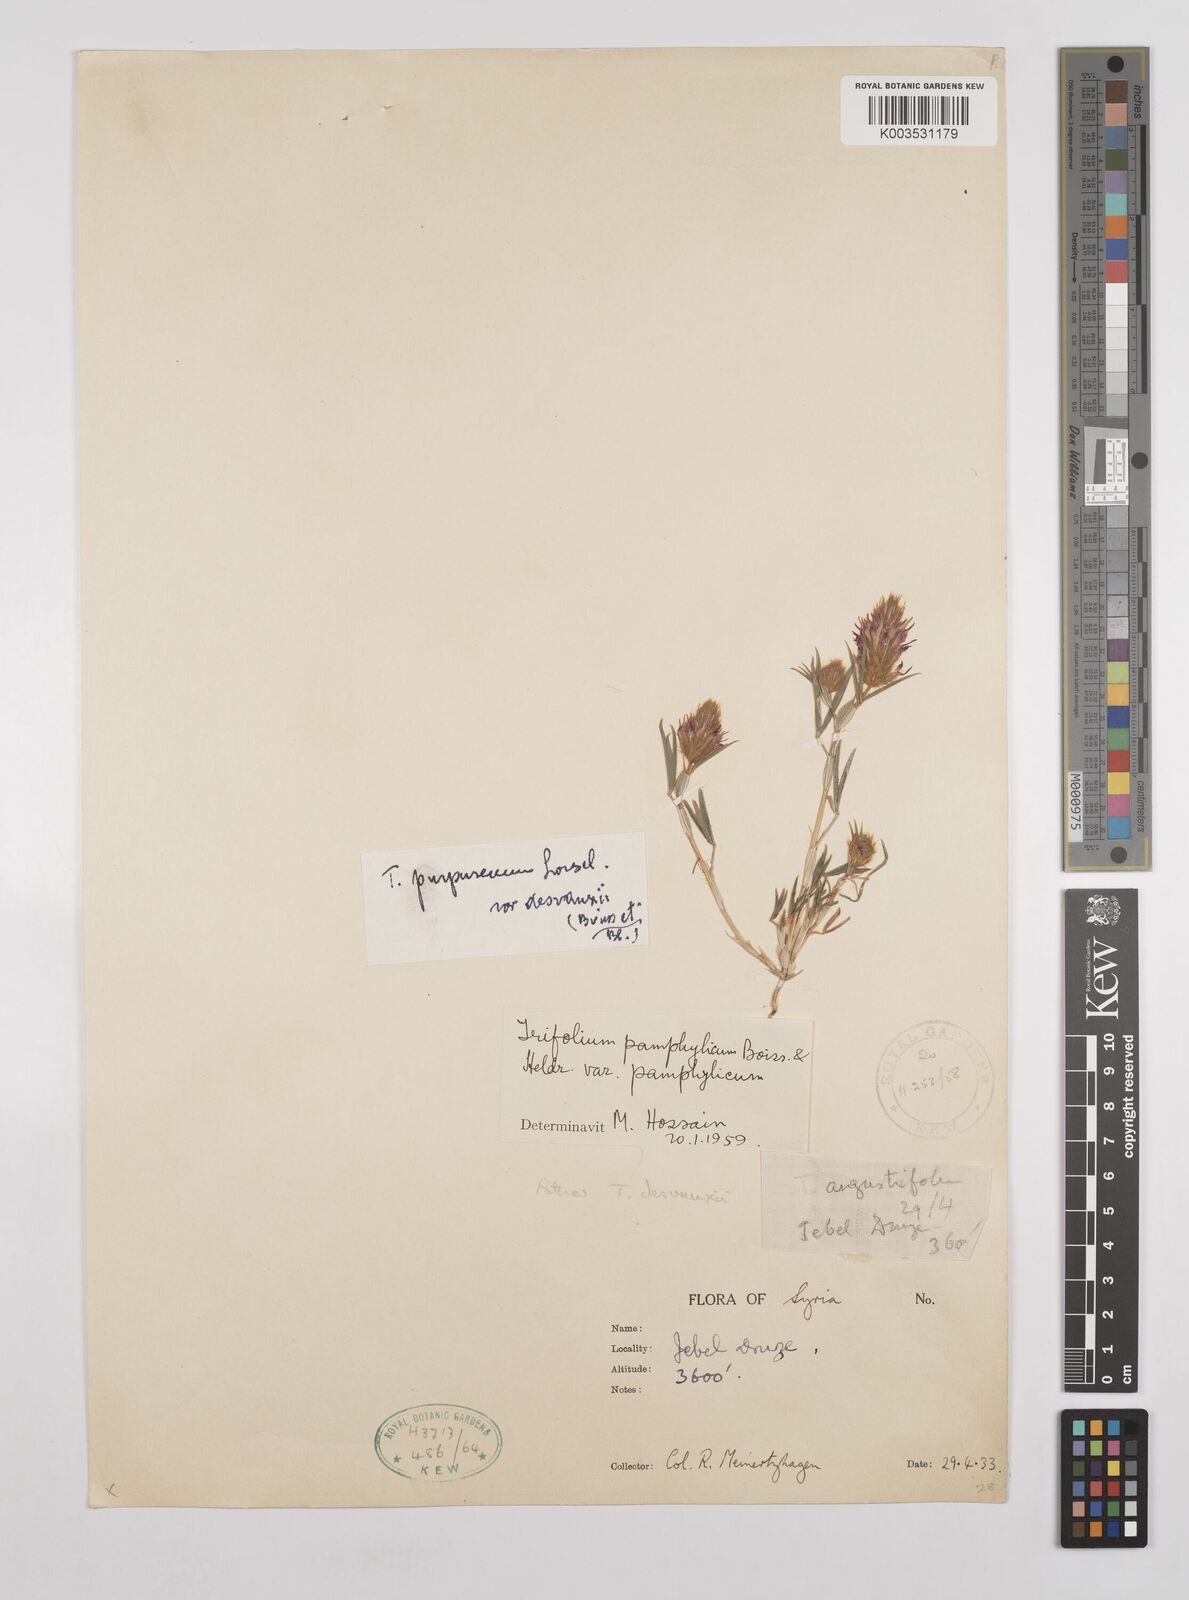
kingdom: Plantae
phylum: Tracheophyta
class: Magnoliopsida
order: Fabales
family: Fabaceae
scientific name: Fabaceae
